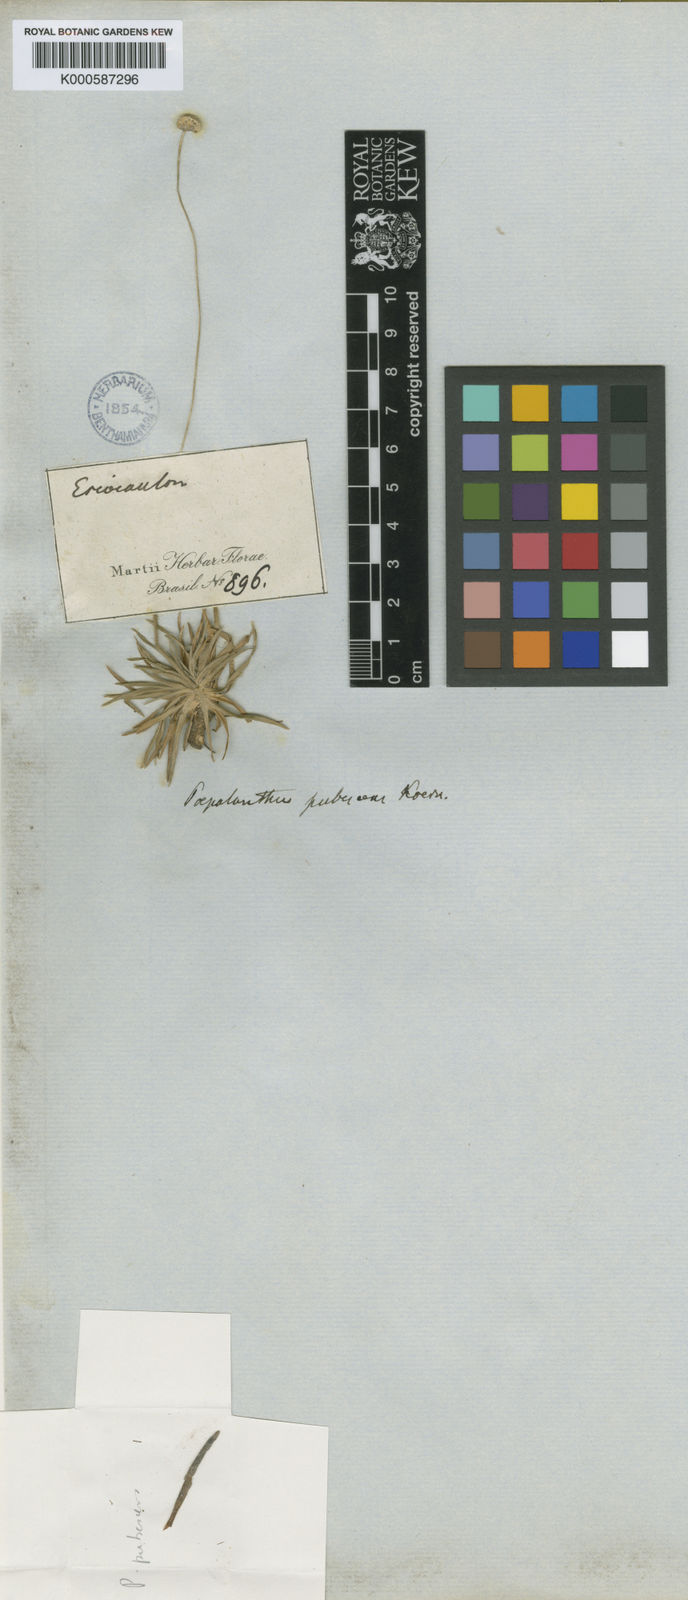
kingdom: Plantae
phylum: Tracheophyta
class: Liliopsida
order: Poales
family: Eriocaulaceae
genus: Paepalanthus
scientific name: Paepalanthus
